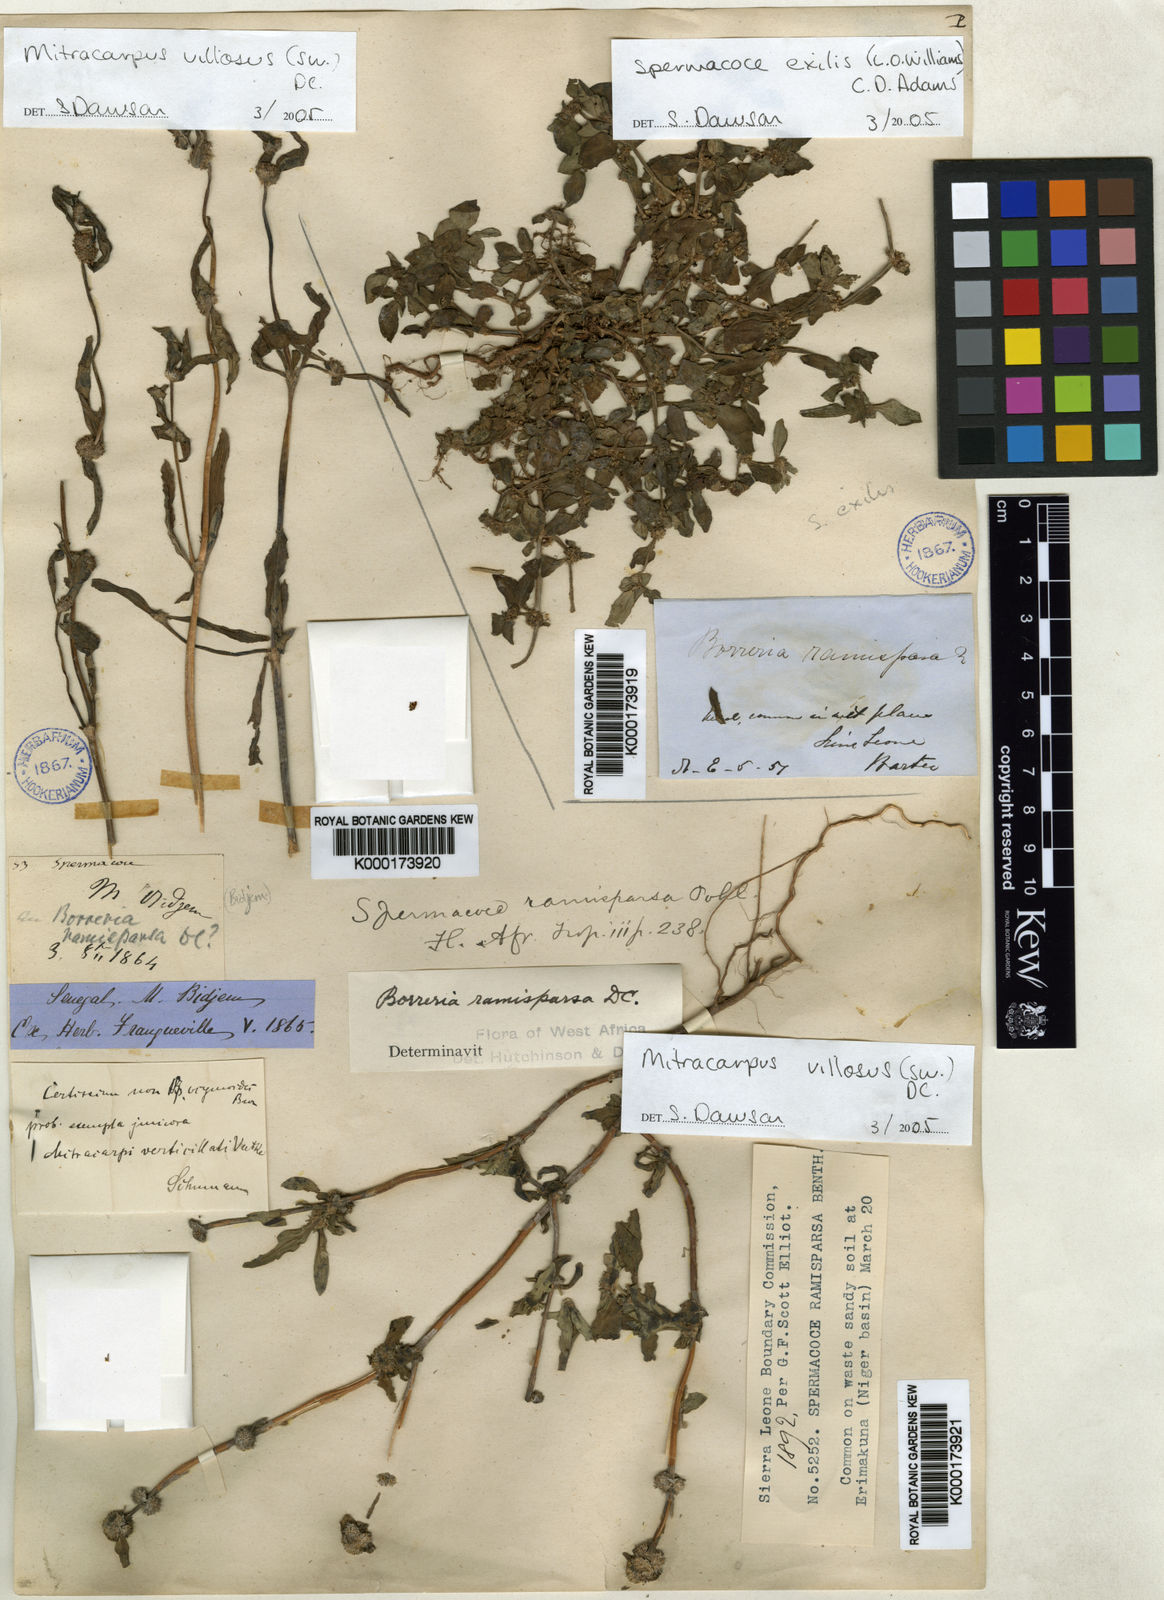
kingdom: Plantae
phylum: Tracheophyta
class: Magnoliopsida
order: Gentianales
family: Rubiaceae
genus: Spermacoce
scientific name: Spermacoce exilis
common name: Pacific false buttonweed
